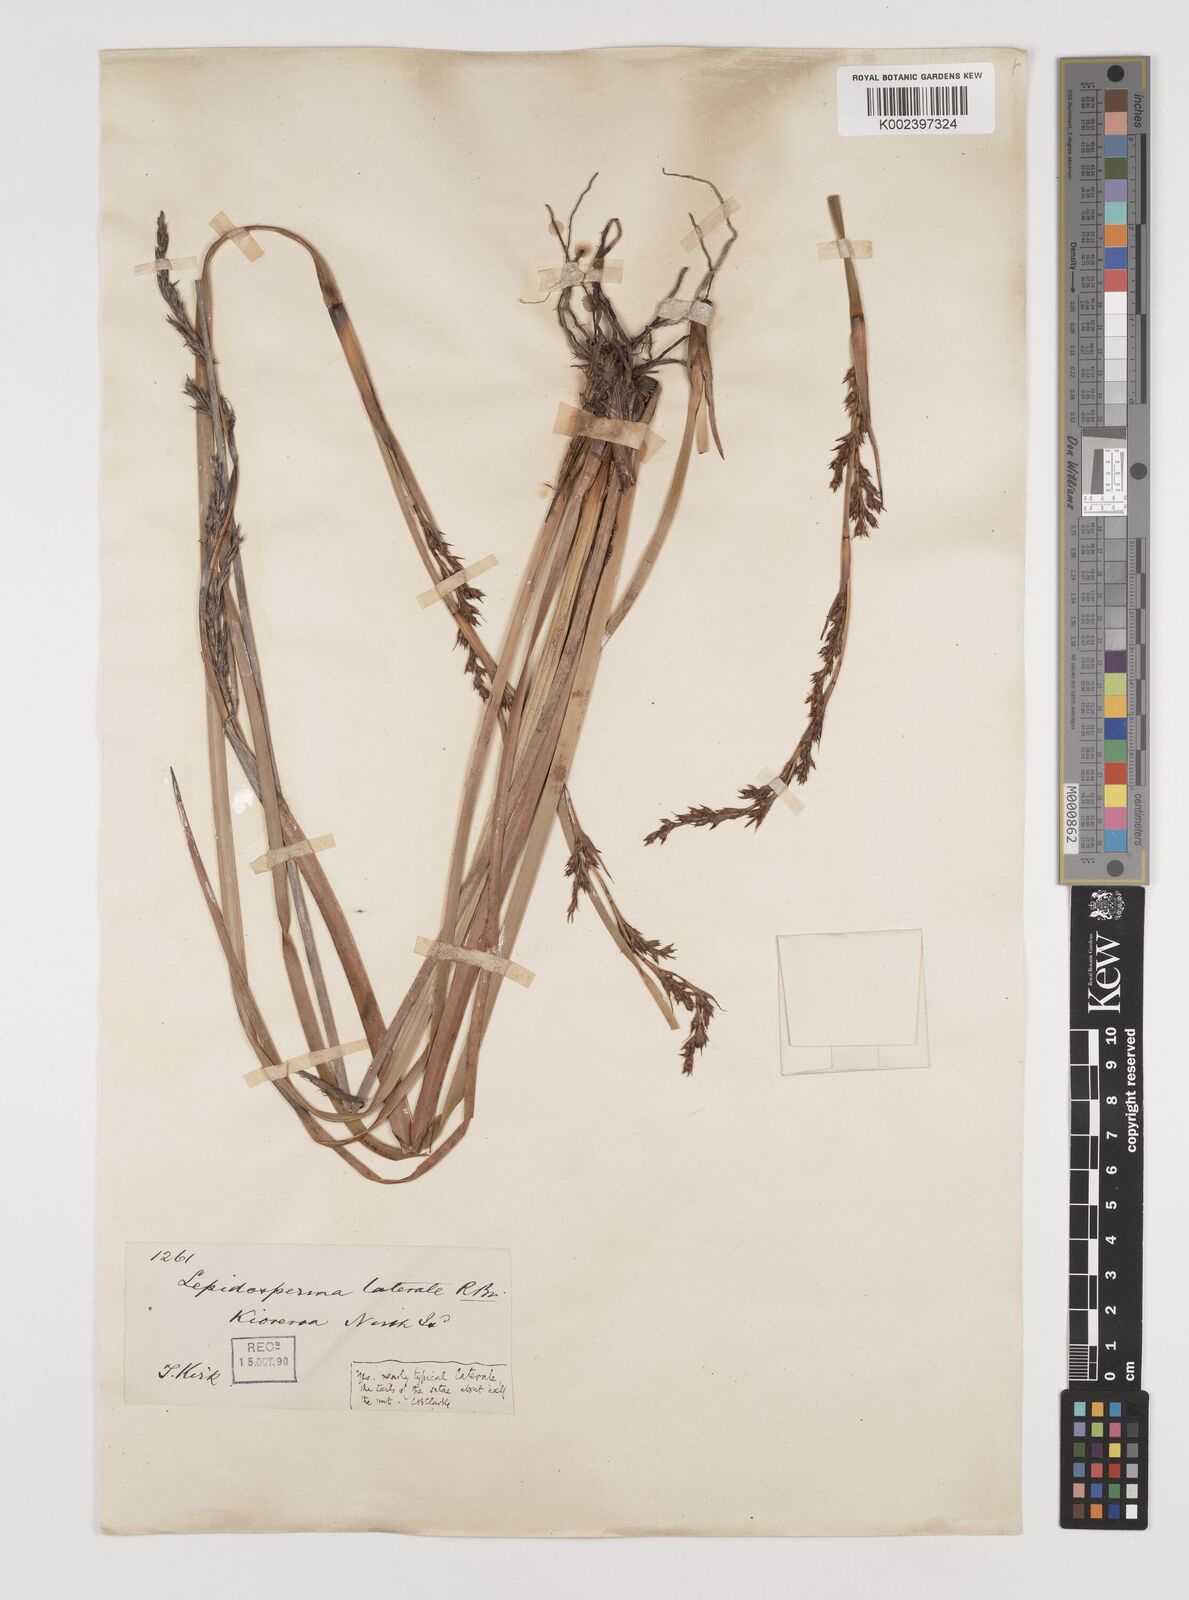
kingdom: Plantae
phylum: Tracheophyta
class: Liliopsida
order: Poales
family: Cyperaceae
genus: Lepidosperma
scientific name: Lepidosperma laterale
